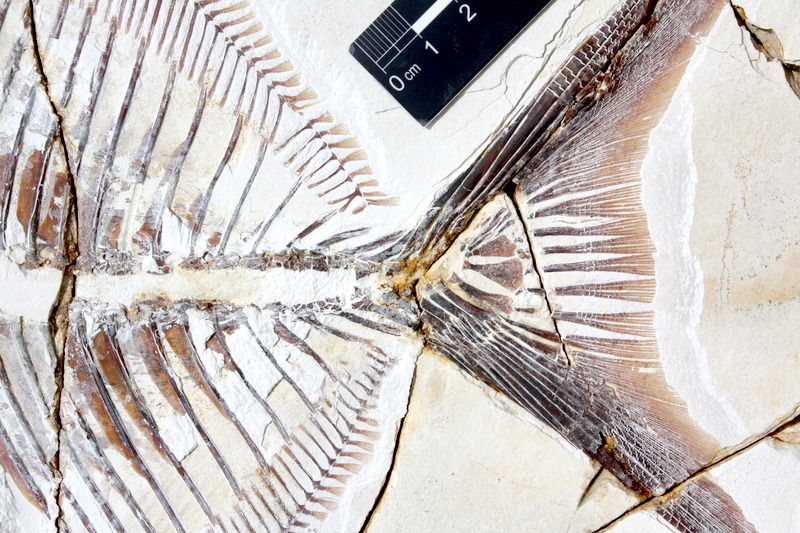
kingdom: Animalia
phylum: Chordata
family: Pycnodontidae
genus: Proscinetes
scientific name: Proscinetes elegans
